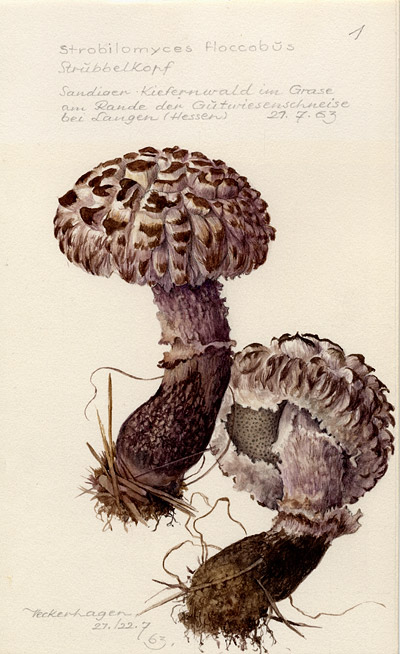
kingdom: Fungi
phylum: Basidiomycota
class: Agaricomycetes
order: Boletales
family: Boletaceae
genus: Strobilomyces
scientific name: Strobilomyces strobilaceus
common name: Old man of the woods
